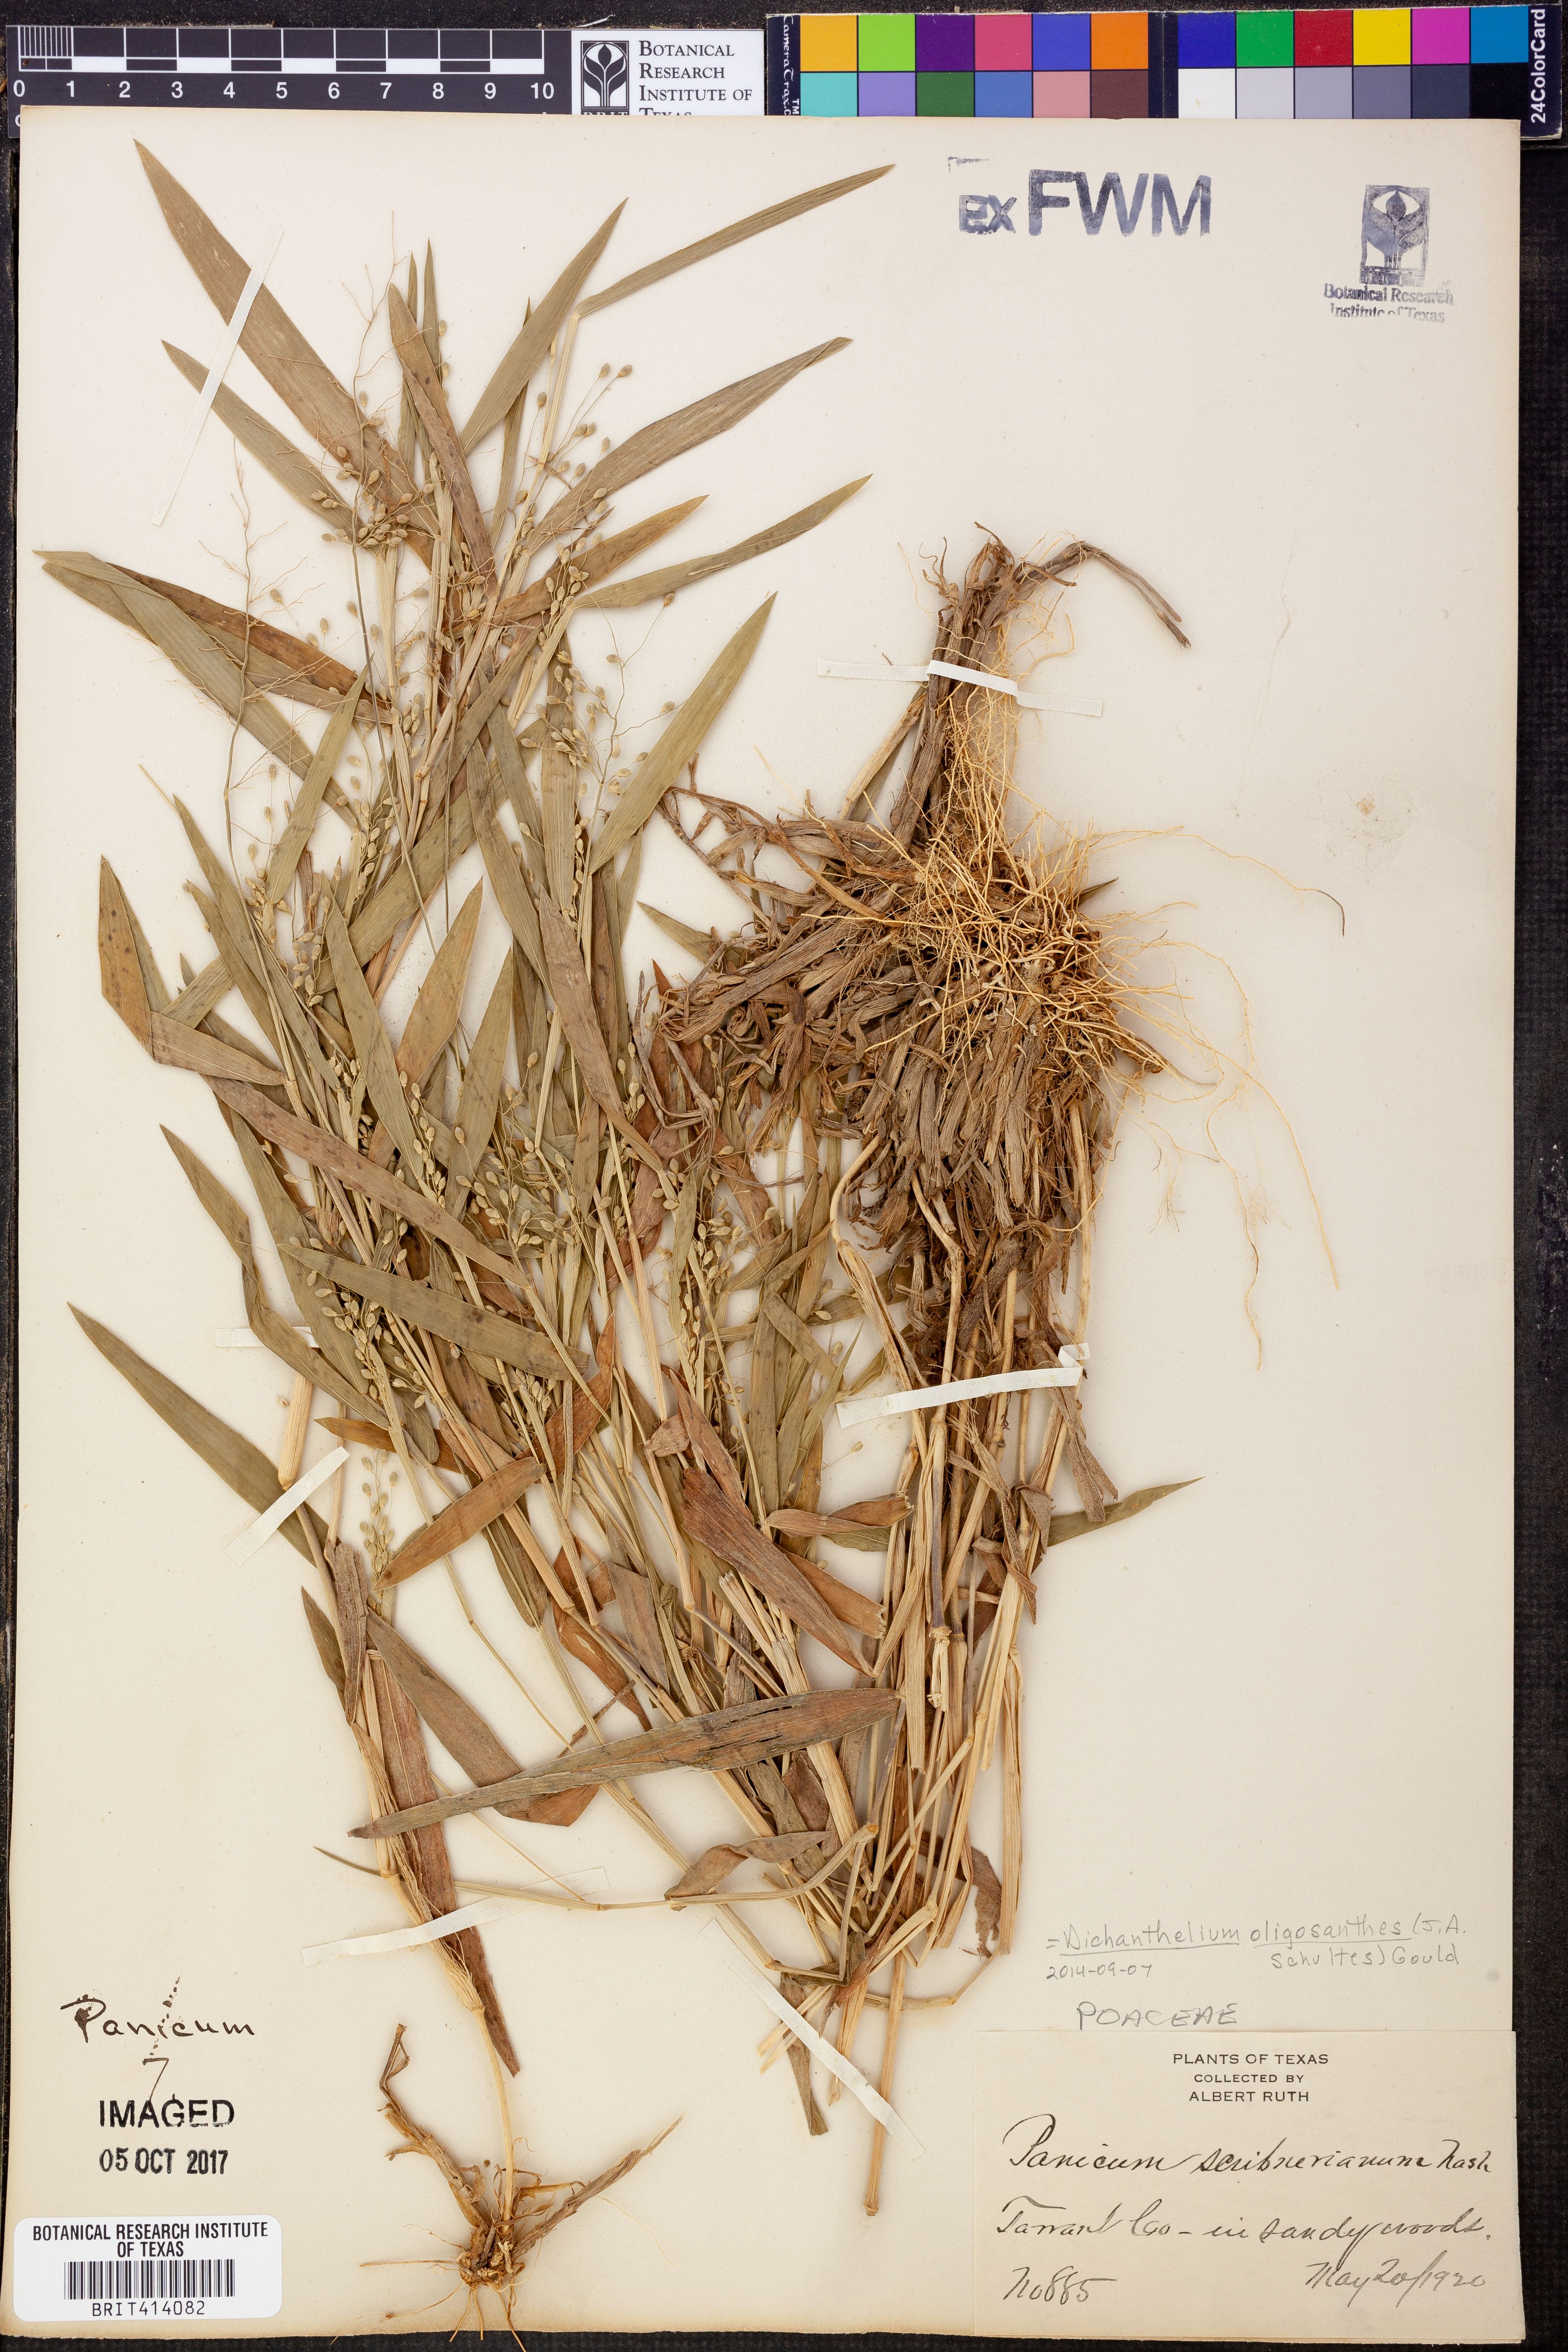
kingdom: Plantae
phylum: Tracheophyta
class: Liliopsida
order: Poales
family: Poaceae
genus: Dichanthelium
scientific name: Dichanthelium scribnerianum
